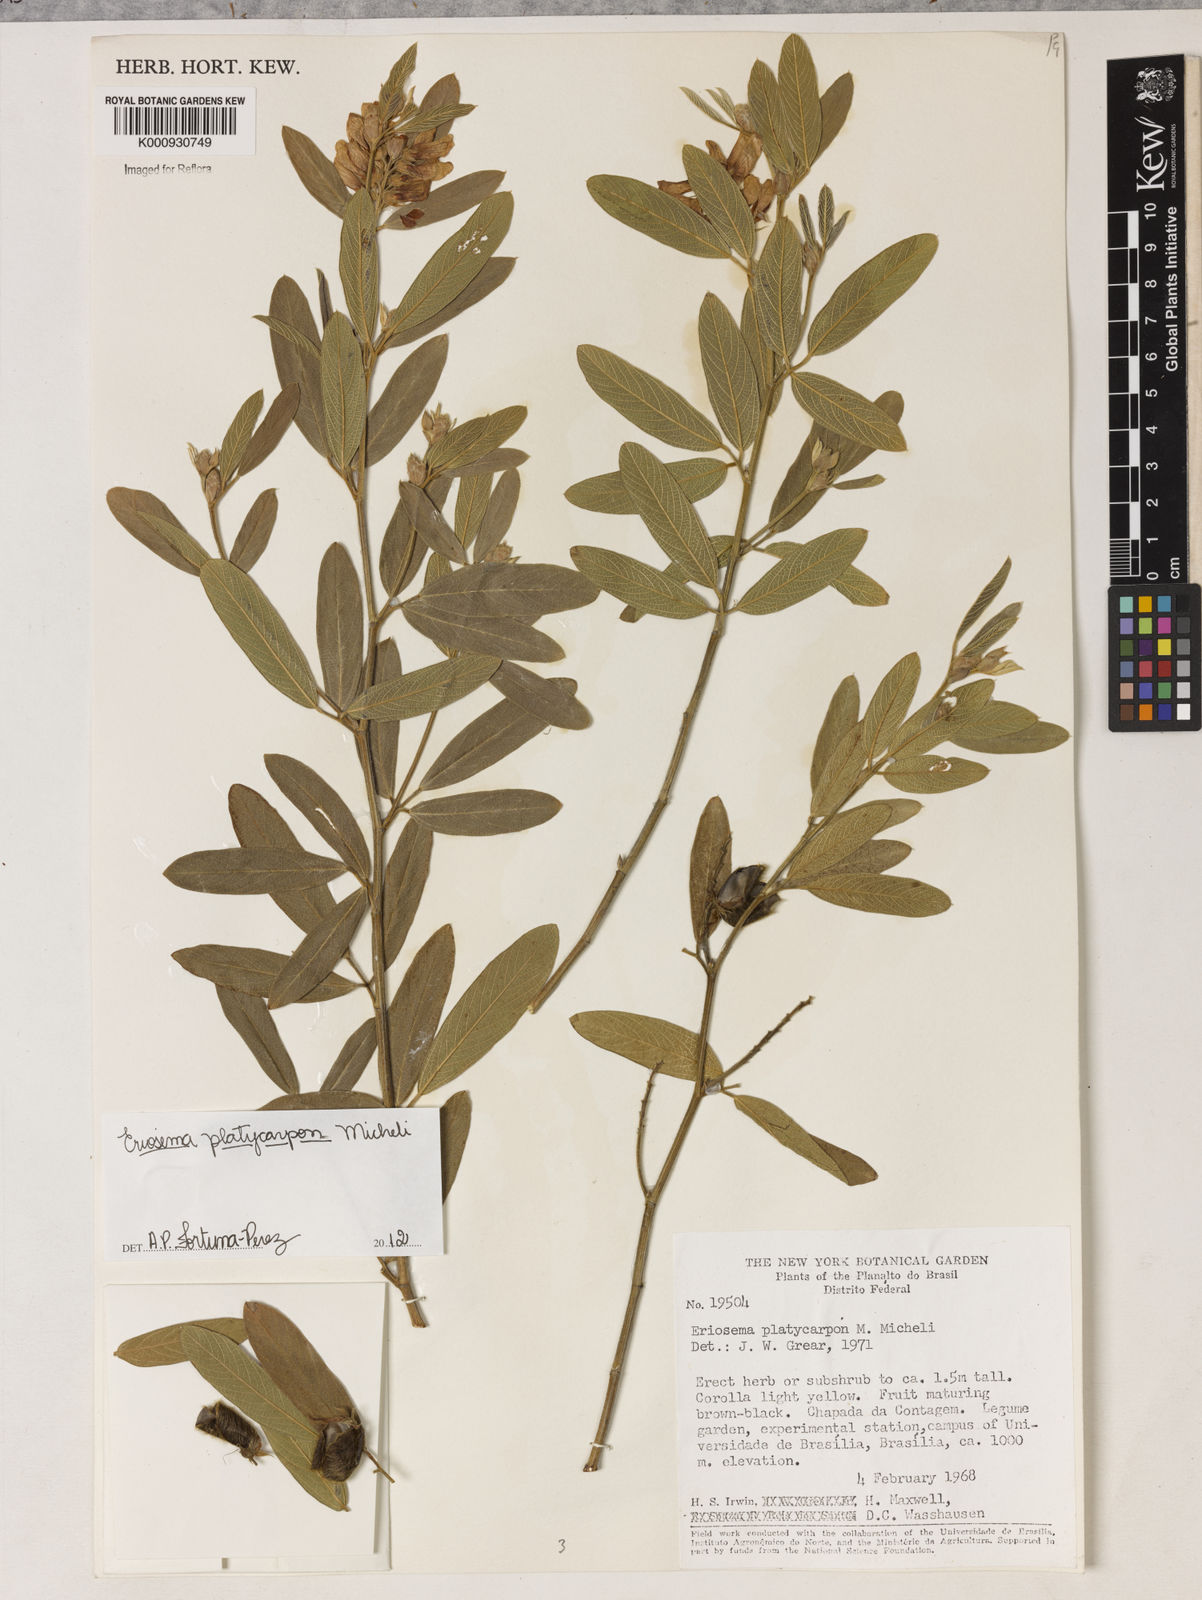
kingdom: Plantae
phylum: Tracheophyta
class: Magnoliopsida
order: Fabales
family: Fabaceae
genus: Eriosema
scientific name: Eriosema platycarpon
